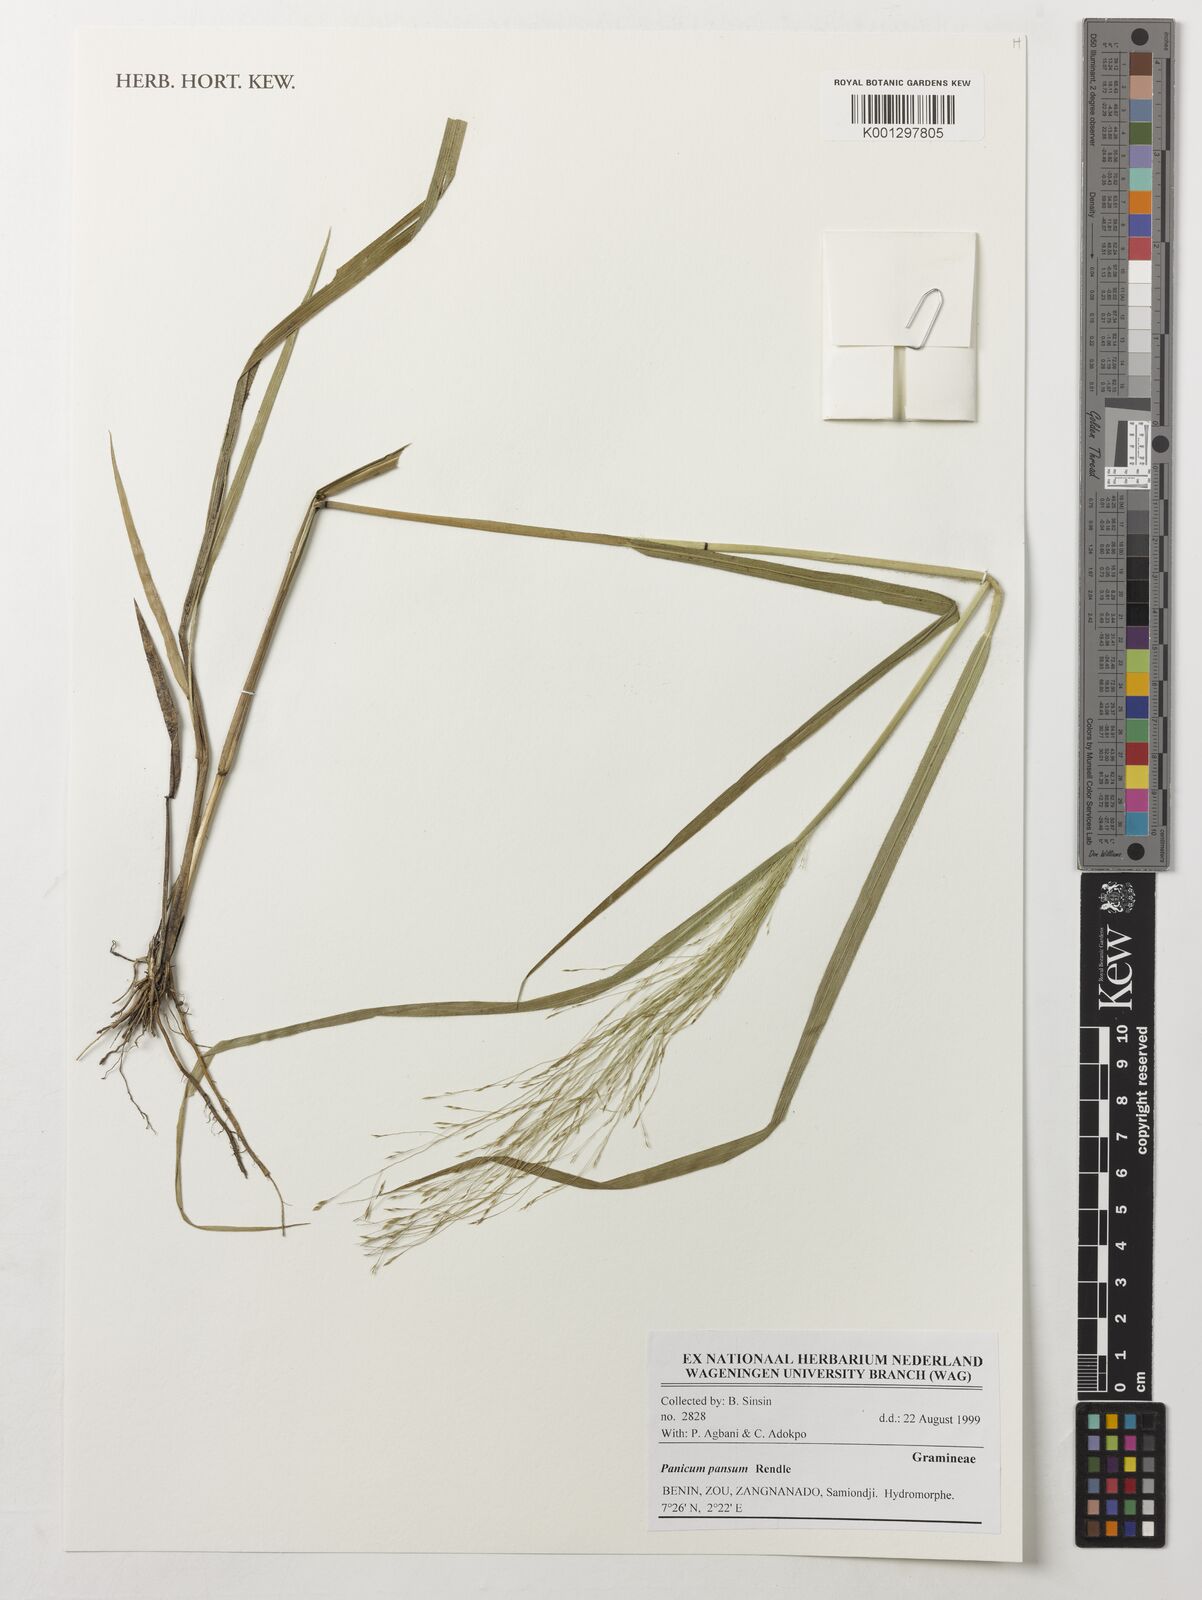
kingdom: Plantae
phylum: Tracheophyta
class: Liliopsida
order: Poales
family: Poaceae
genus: Panicum
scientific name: Panicum pansum
